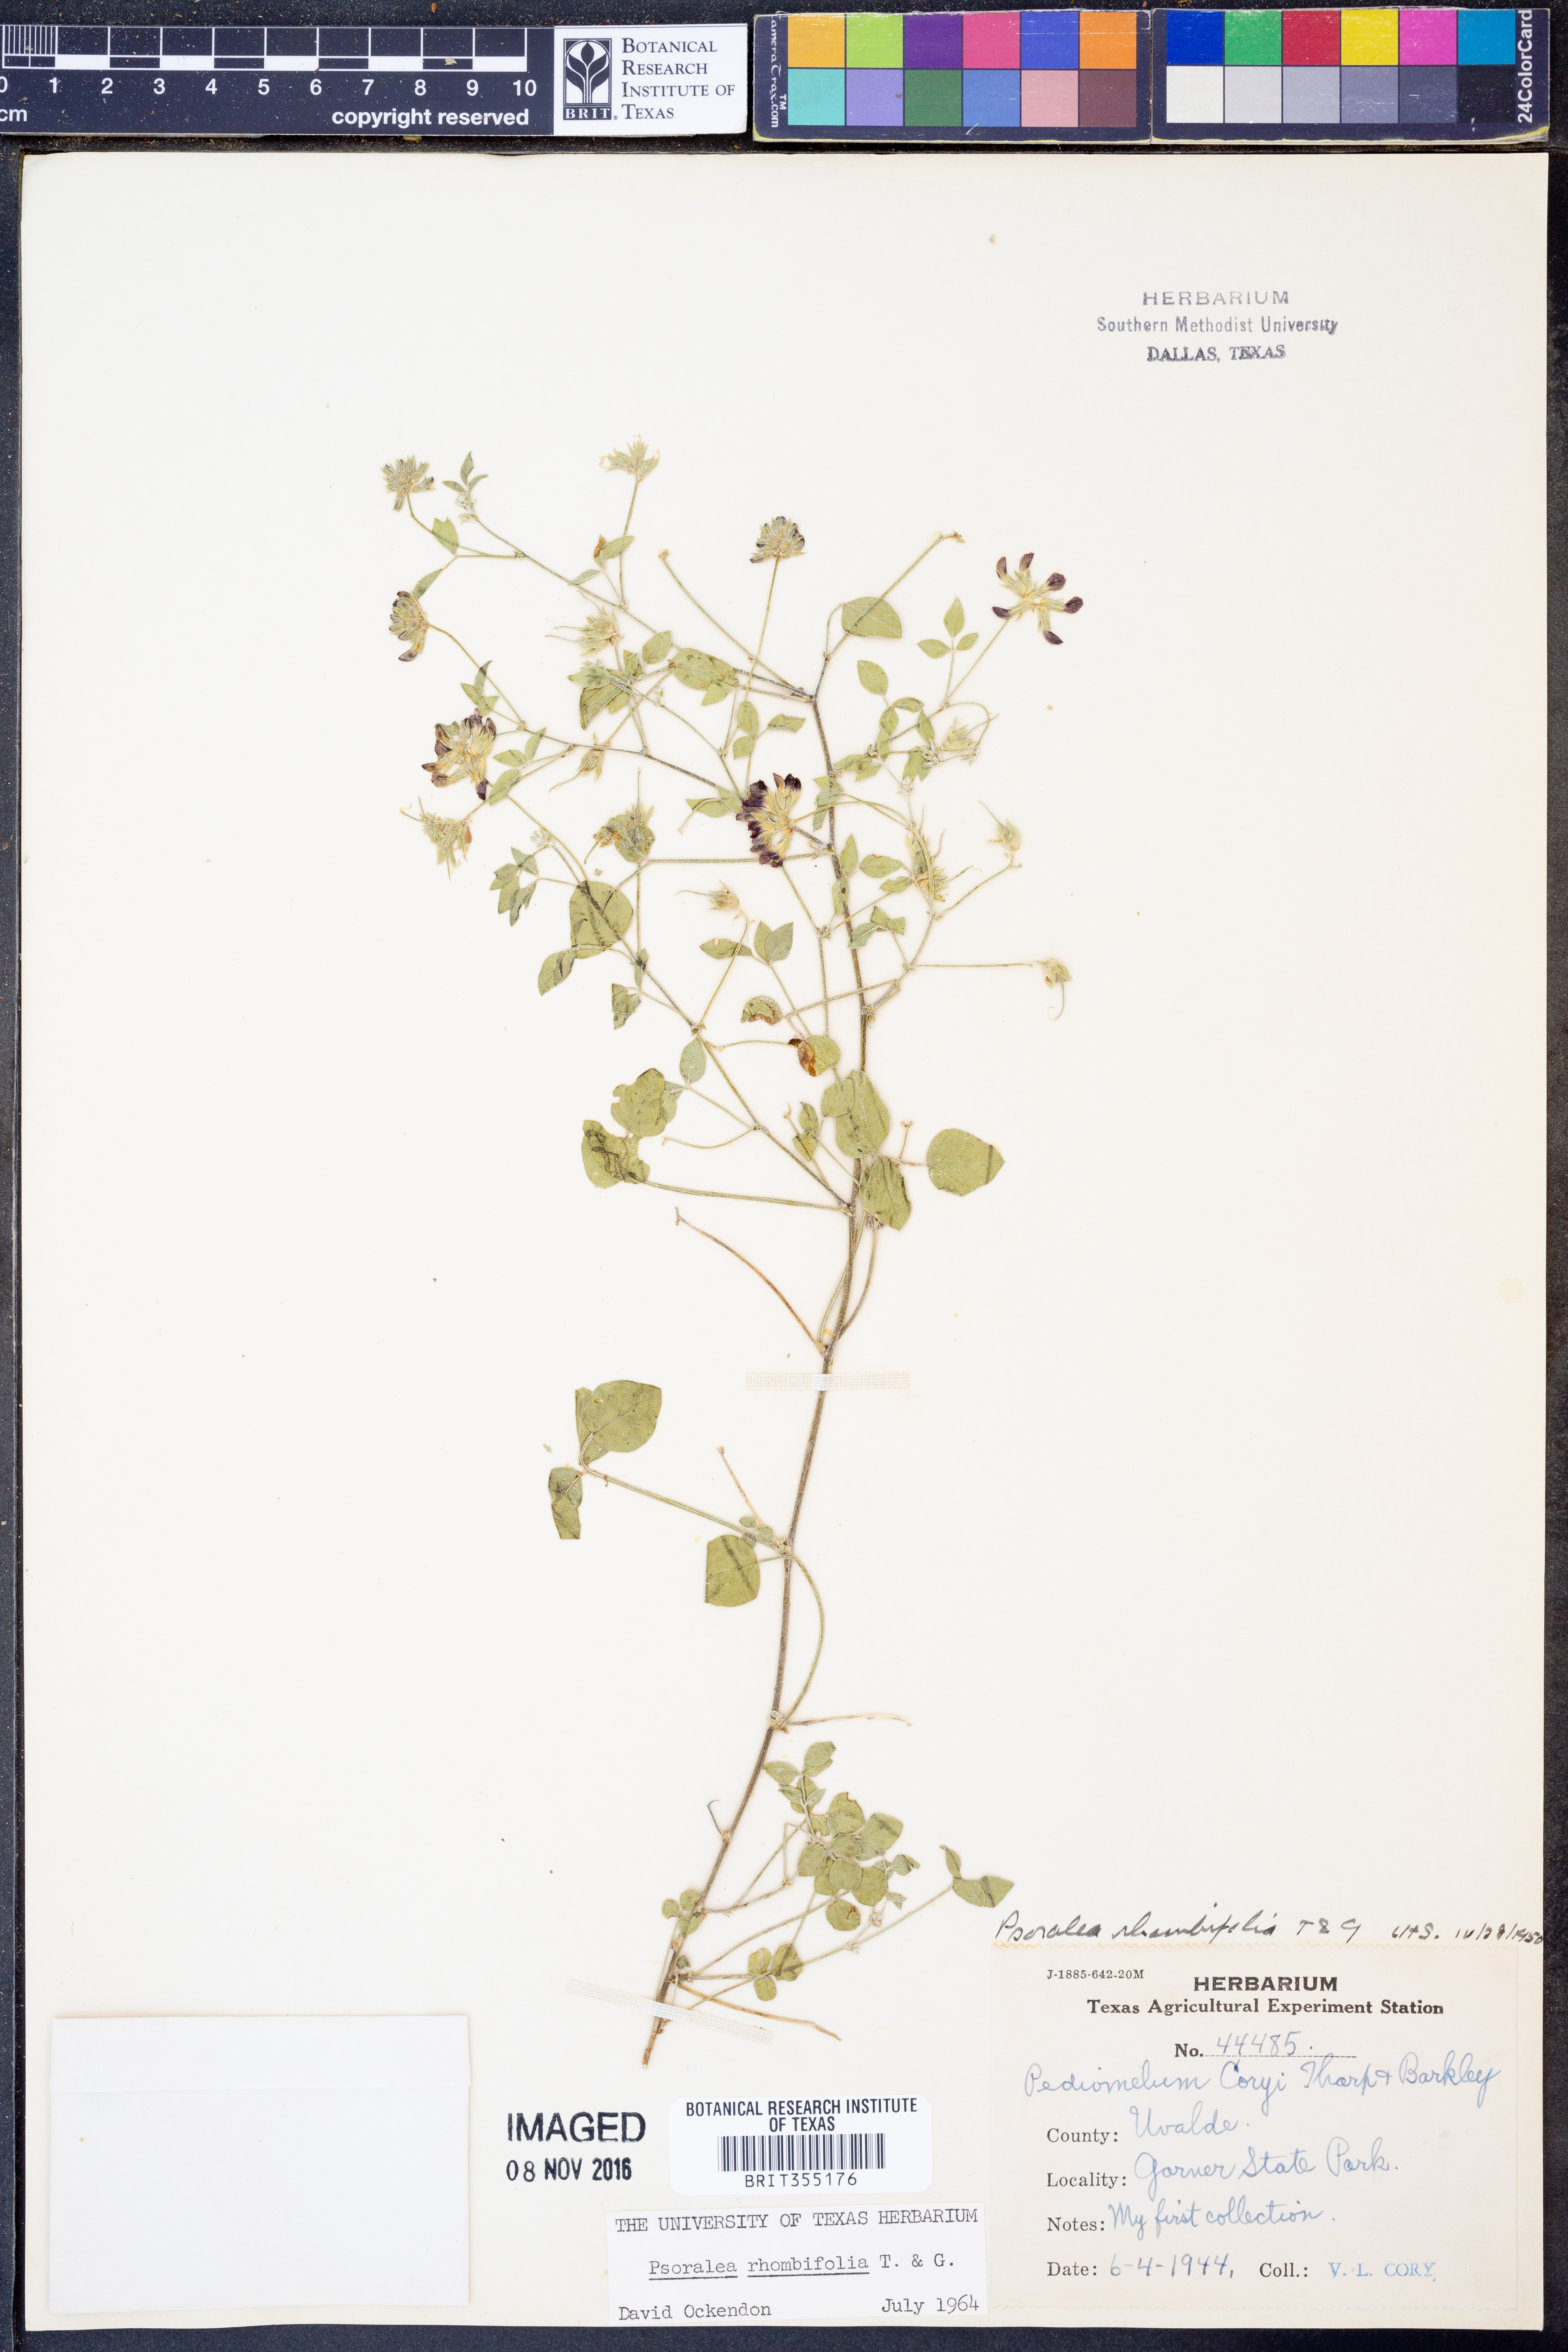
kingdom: Plantae
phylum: Tracheophyta
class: Magnoliopsida
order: Fabales
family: Fabaceae
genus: Pediomelum
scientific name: Pediomelum rhombifolium
